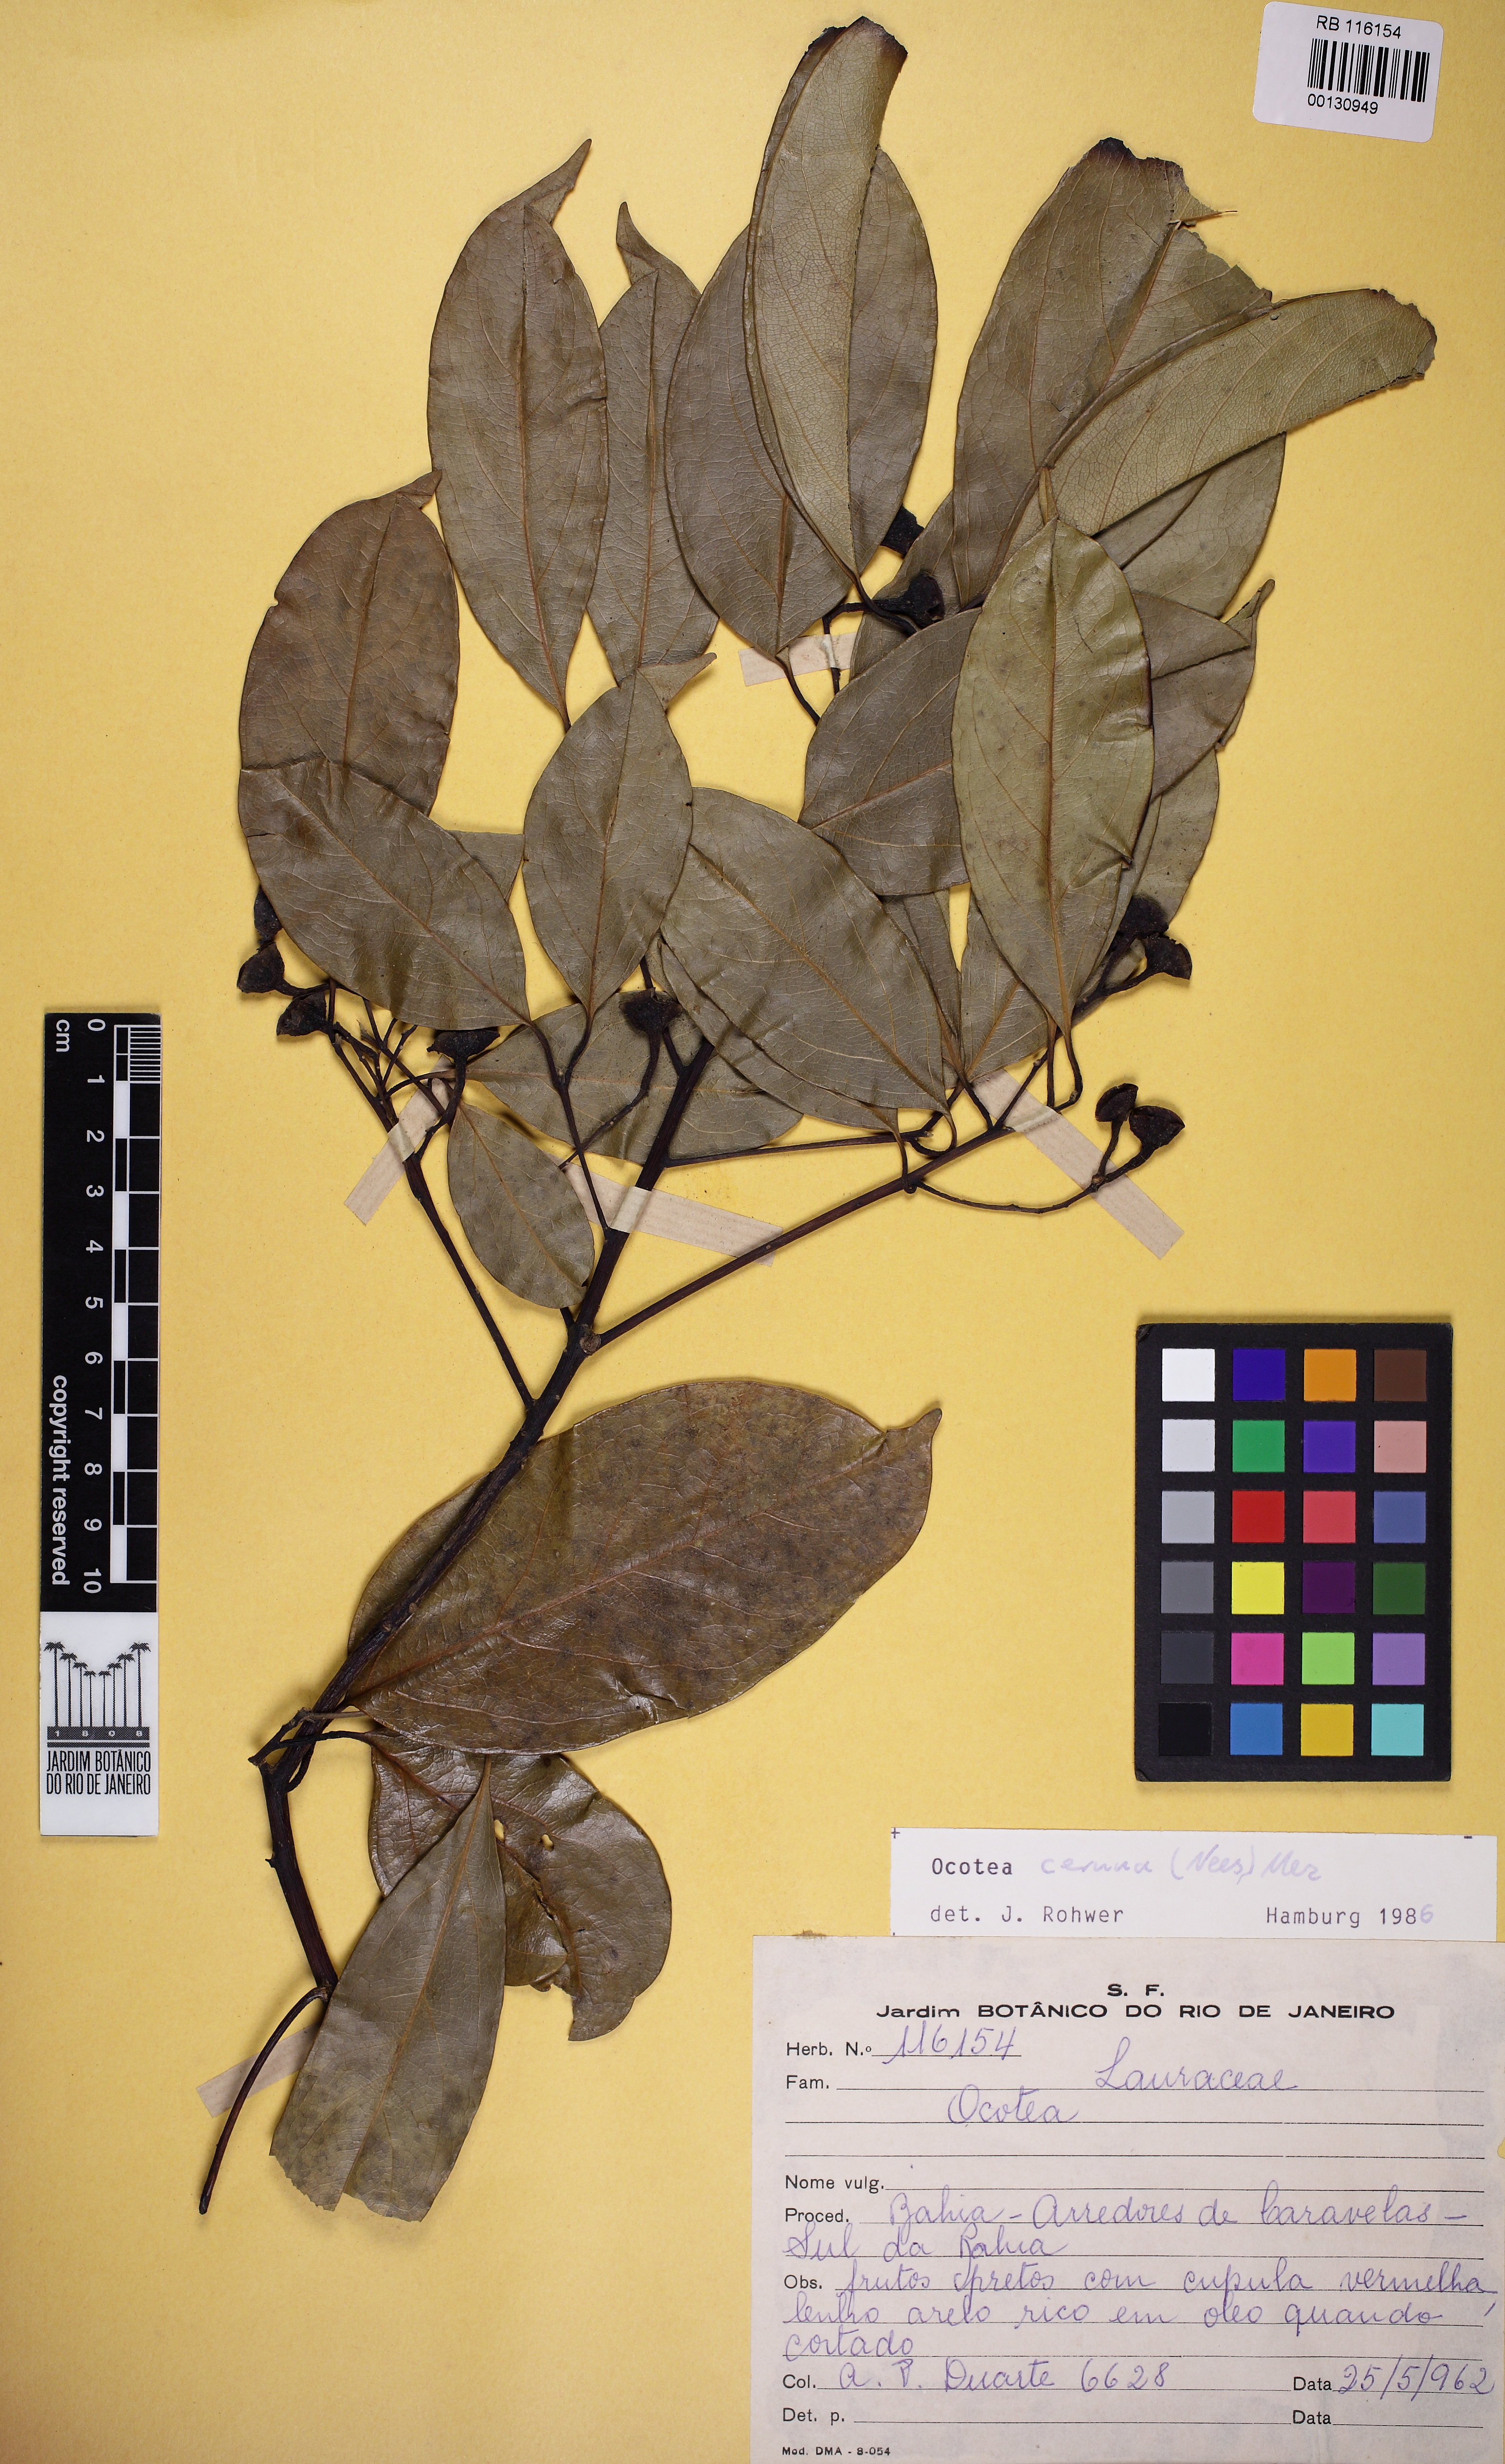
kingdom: Plantae
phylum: Tracheophyta
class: Magnoliopsida
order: Laurales
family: Lauraceae
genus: Ocotea
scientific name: Ocotea leptobotra
